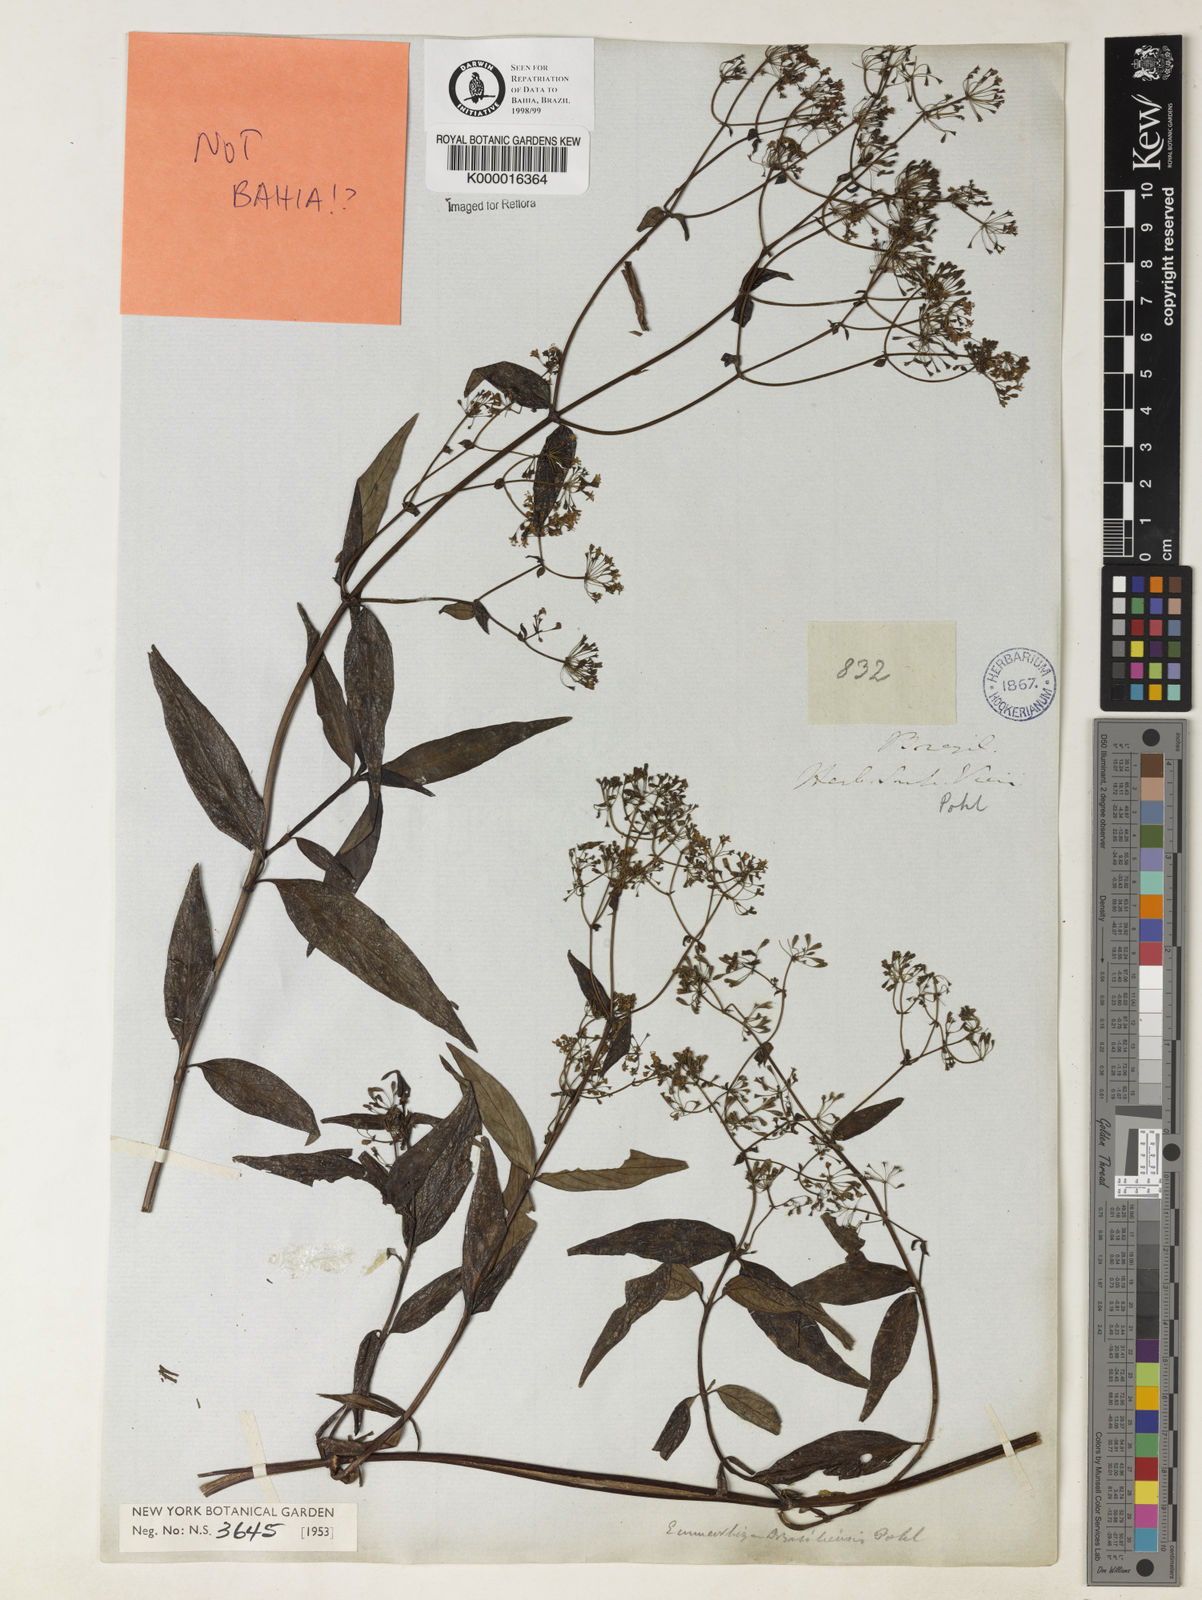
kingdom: Plantae
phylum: Tracheophyta
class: Magnoliopsida
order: Gentianales
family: Rubiaceae
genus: Emmeorhiza
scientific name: Emmeorhiza umbellata
